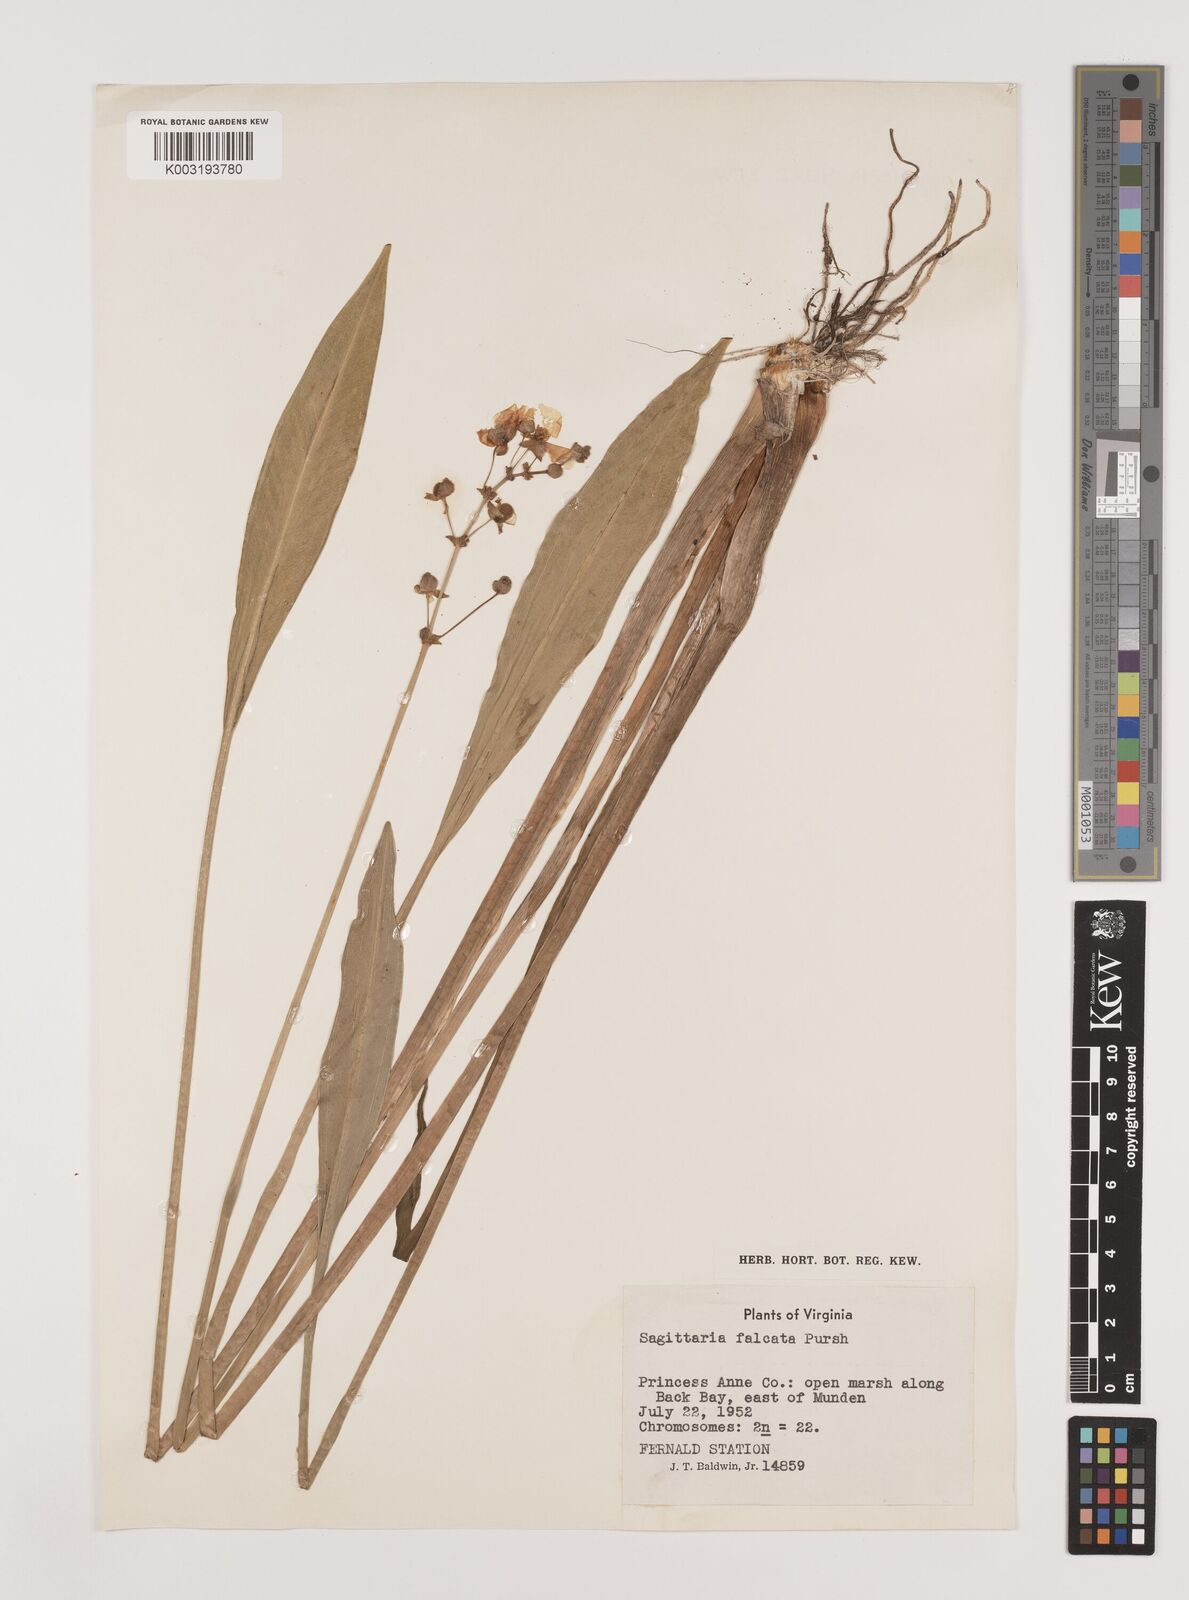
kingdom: Plantae
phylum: Tracheophyta
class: Liliopsida
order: Alismatales
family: Alismataceae
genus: Sagittaria
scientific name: Sagittaria lancifolia
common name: Lance-leaf arrowhead
